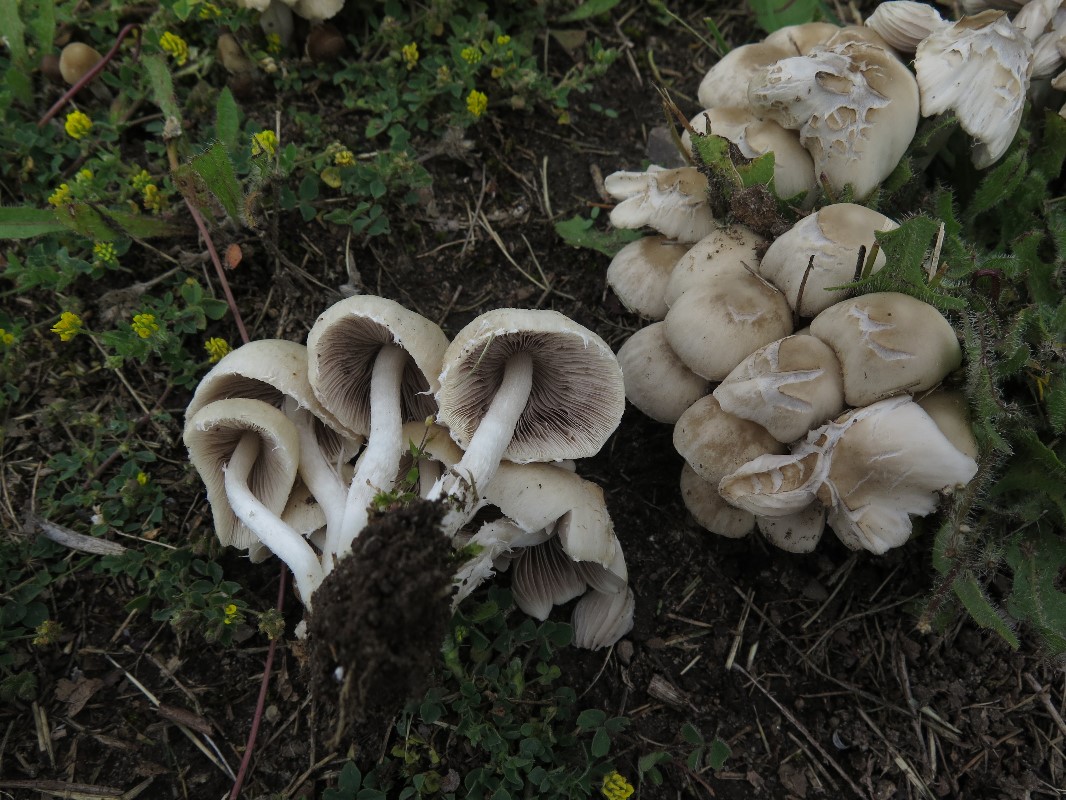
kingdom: Fungi
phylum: Basidiomycota
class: Agaricomycetes
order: Agaricales
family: Psathyrellaceae
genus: Candolleomyces
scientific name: Candolleomyces candolleanus
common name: Candolles mørkhat
